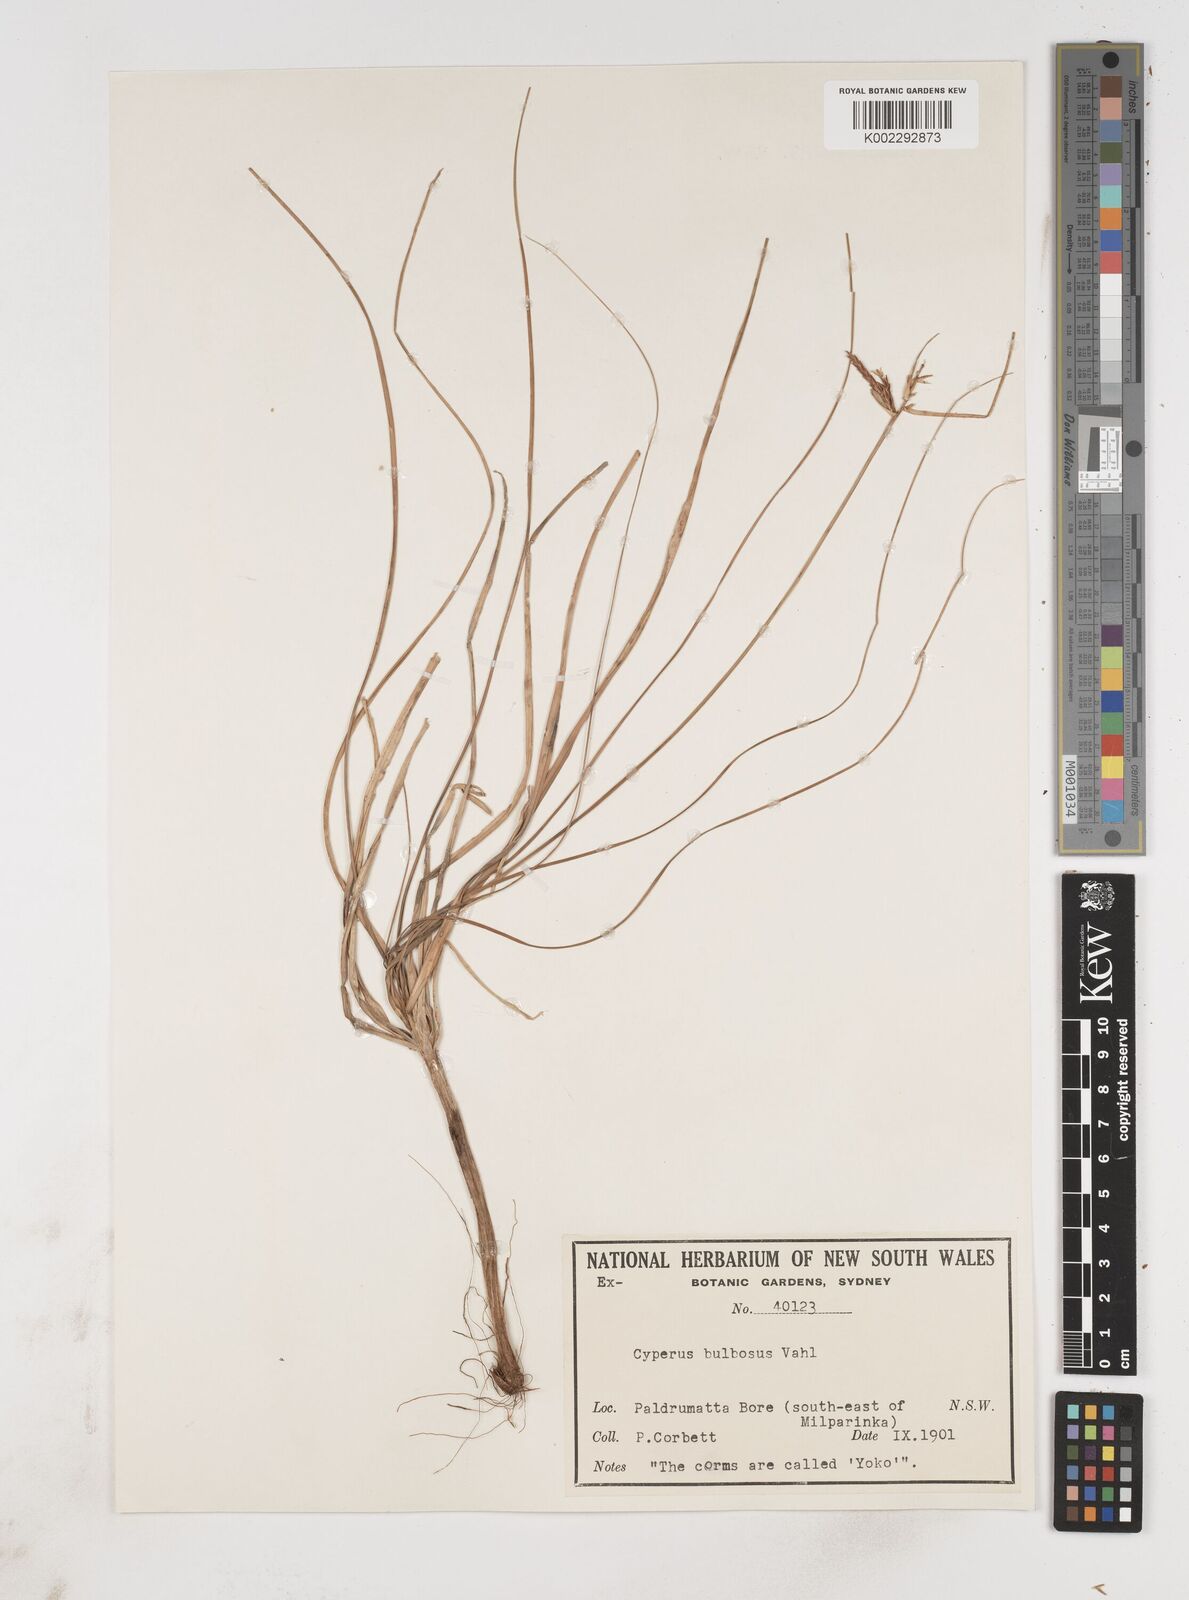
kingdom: Plantae
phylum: Tracheophyta
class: Liliopsida
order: Poales
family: Cyperaceae
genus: Cyperus
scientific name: Cyperus bulbosus
